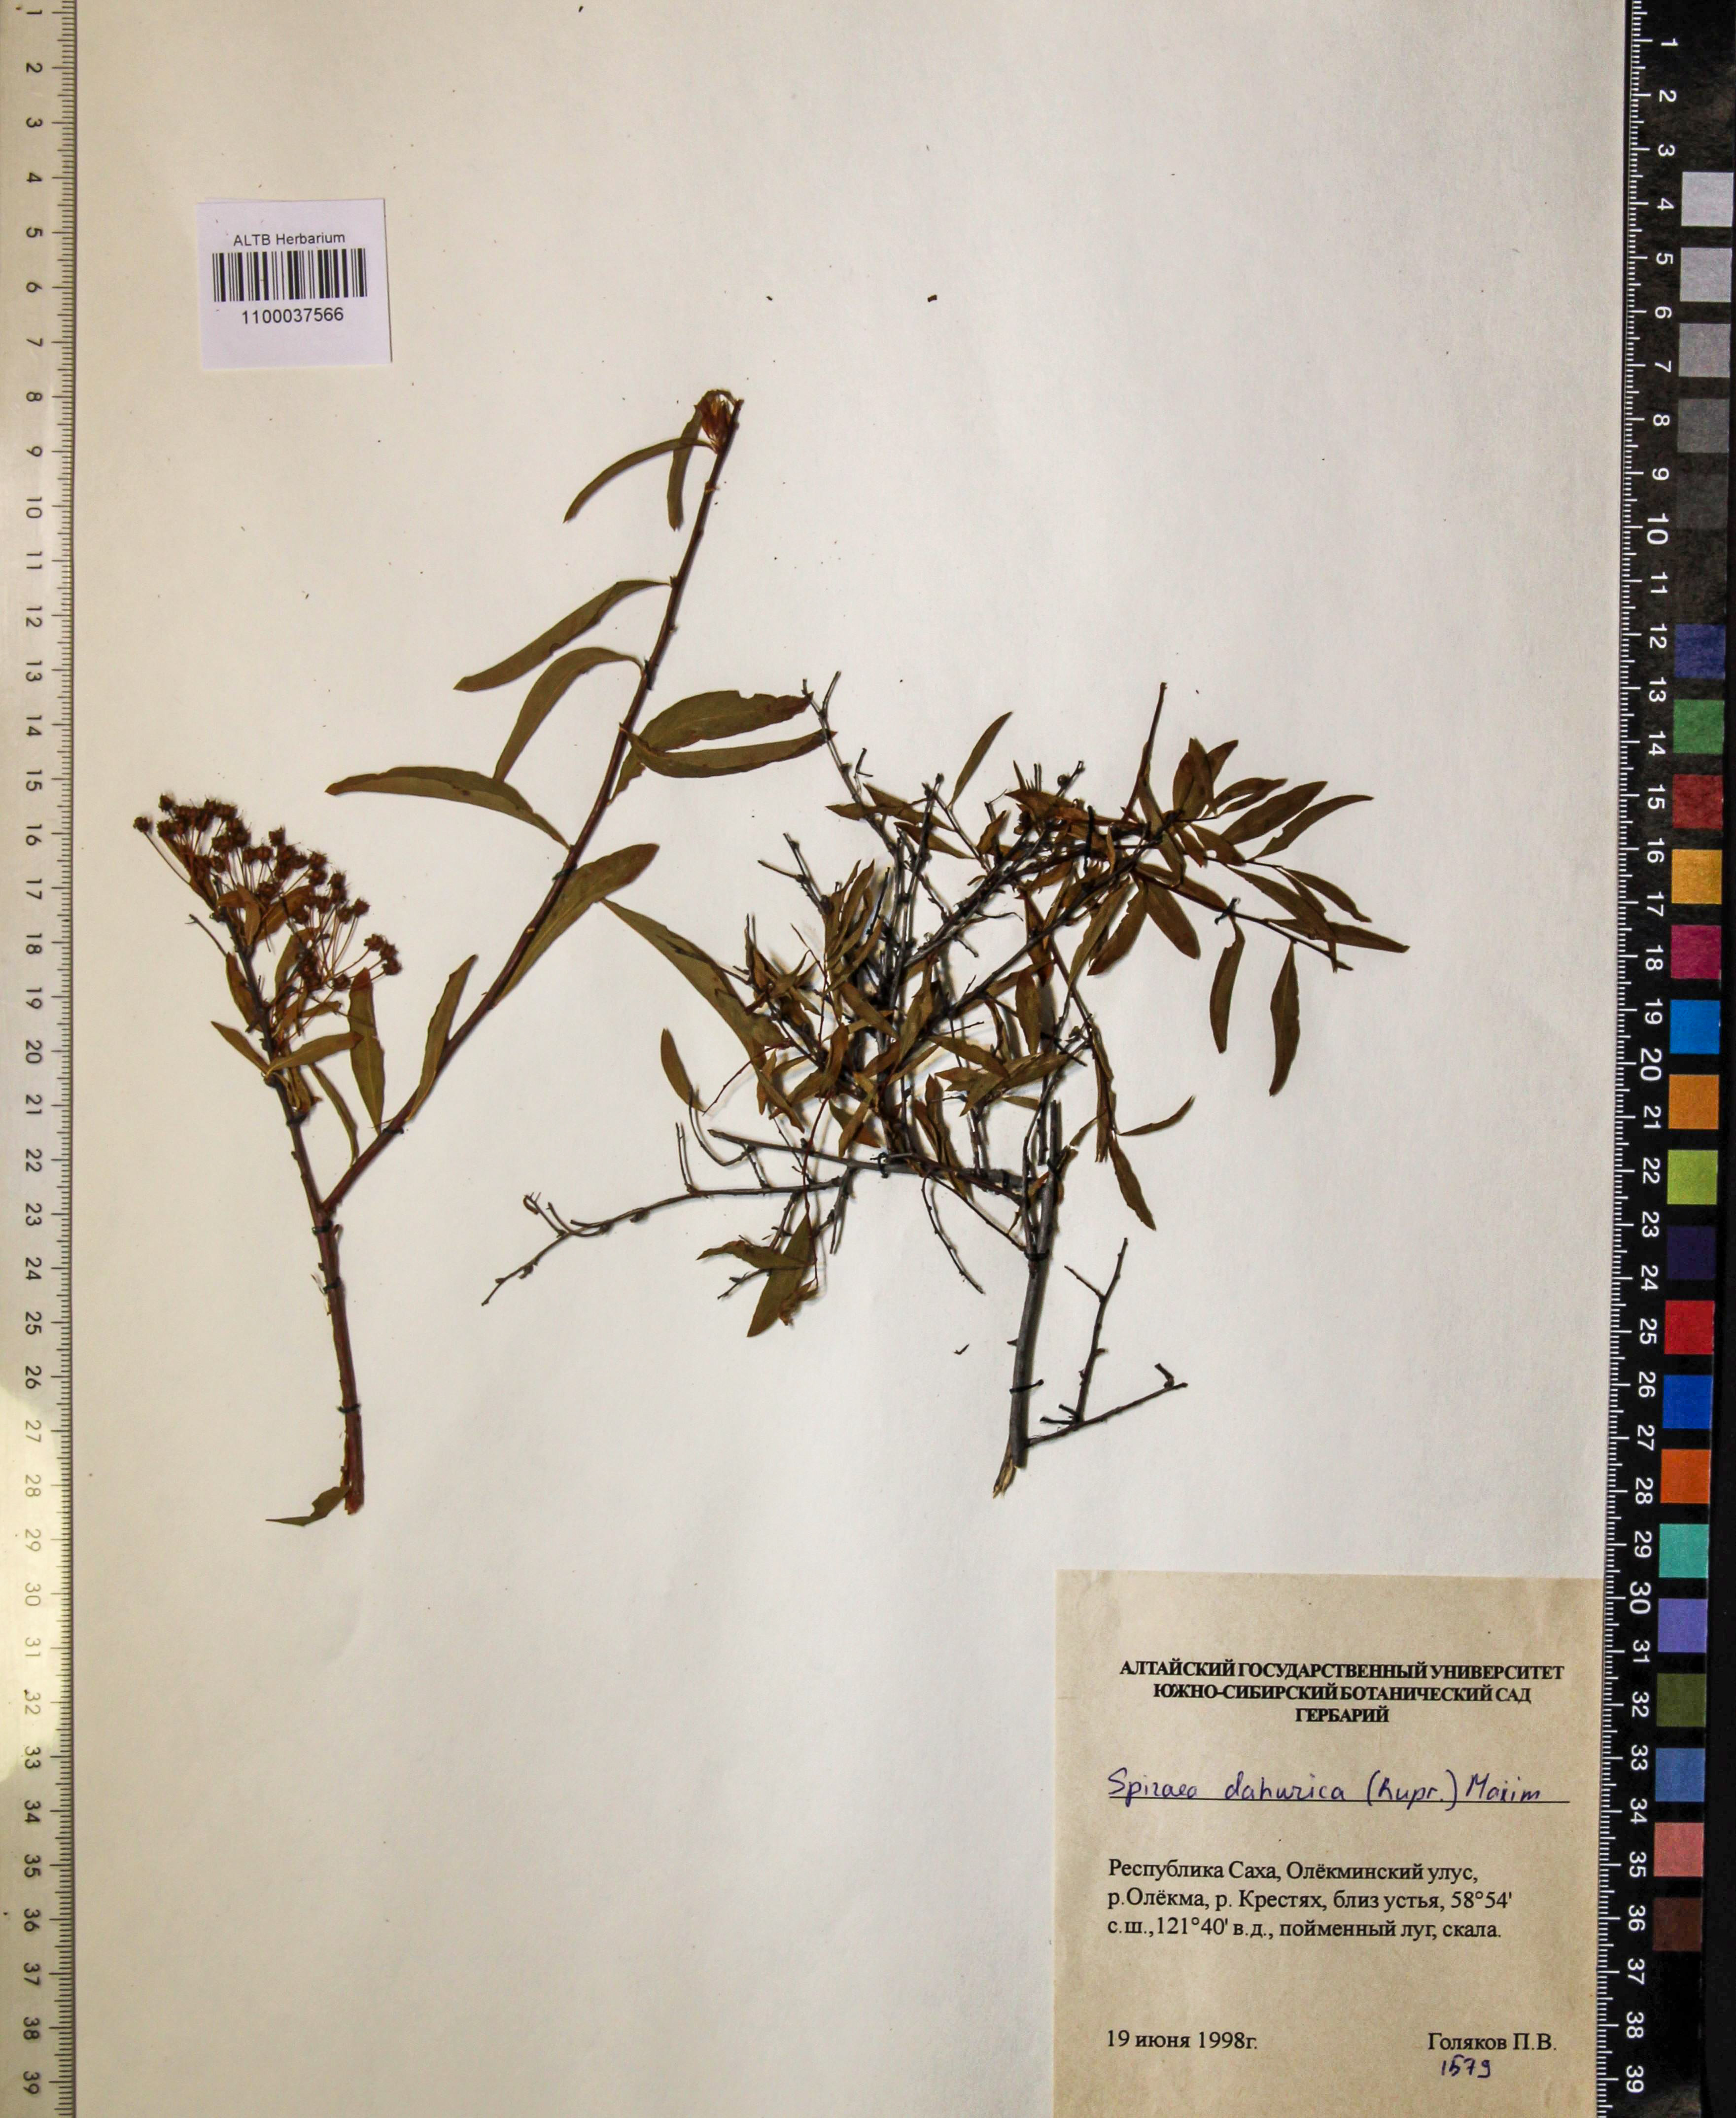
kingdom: Plantae
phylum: Tracheophyta
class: Magnoliopsida
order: Rosales
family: Rosaceae
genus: Spiraea
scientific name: Spiraea dahurica
